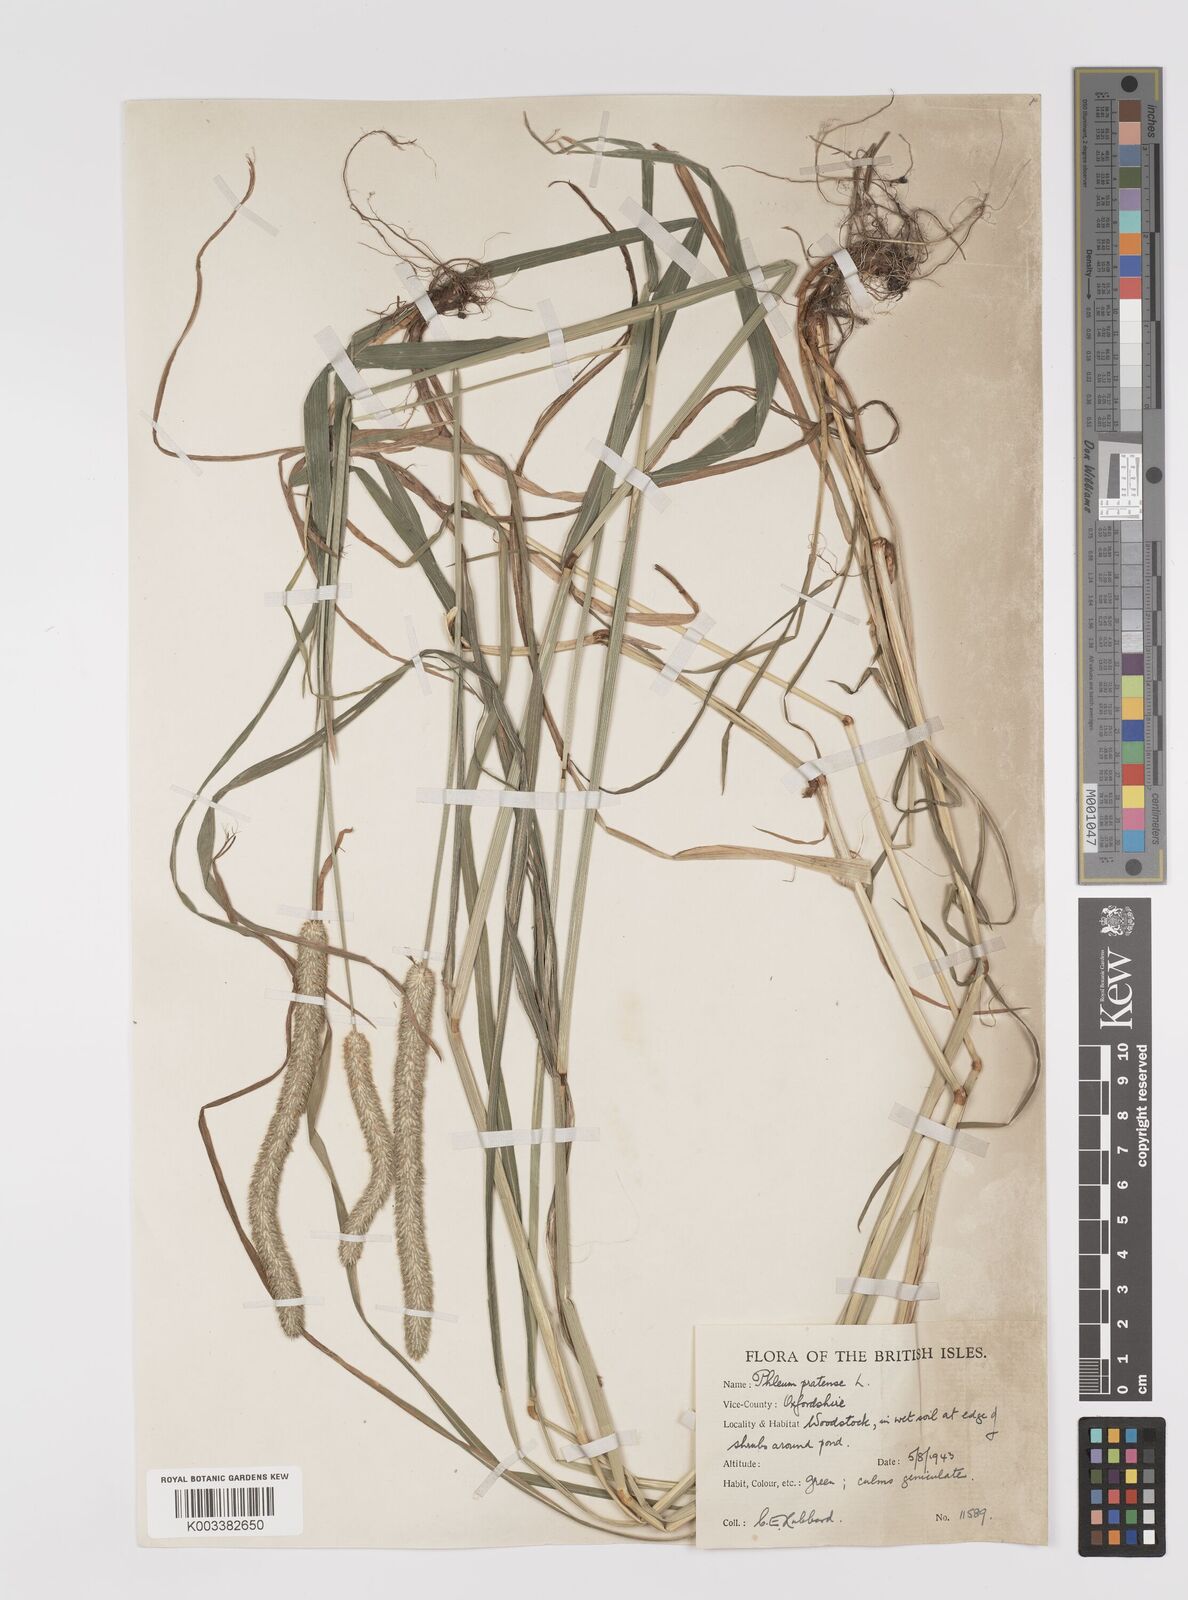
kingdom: Plantae
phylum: Tracheophyta
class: Liliopsida
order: Poales
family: Poaceae
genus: Phleum
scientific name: Phleum pratense
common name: Timothy grass
